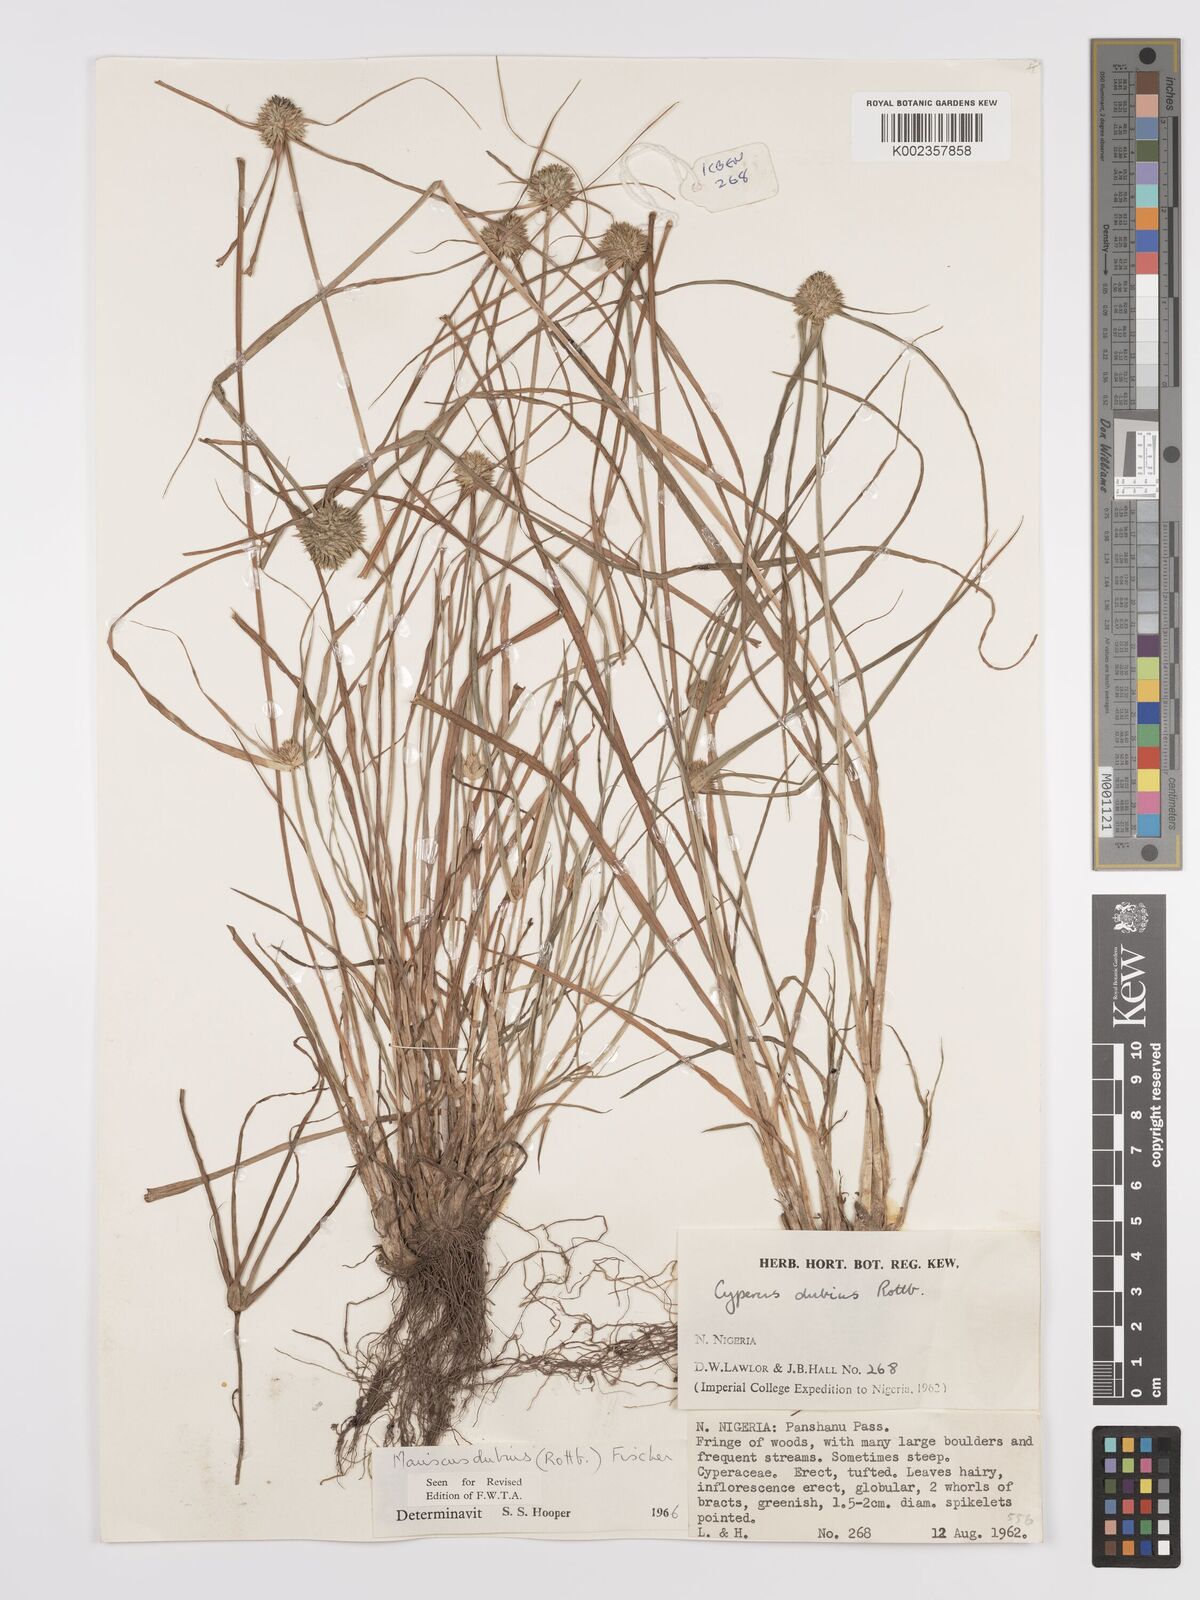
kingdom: Plantae
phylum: Tracheophyta
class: Liliopsida
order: Poales
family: Cyperaceae
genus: Cyperus
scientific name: Cyperus dubius
